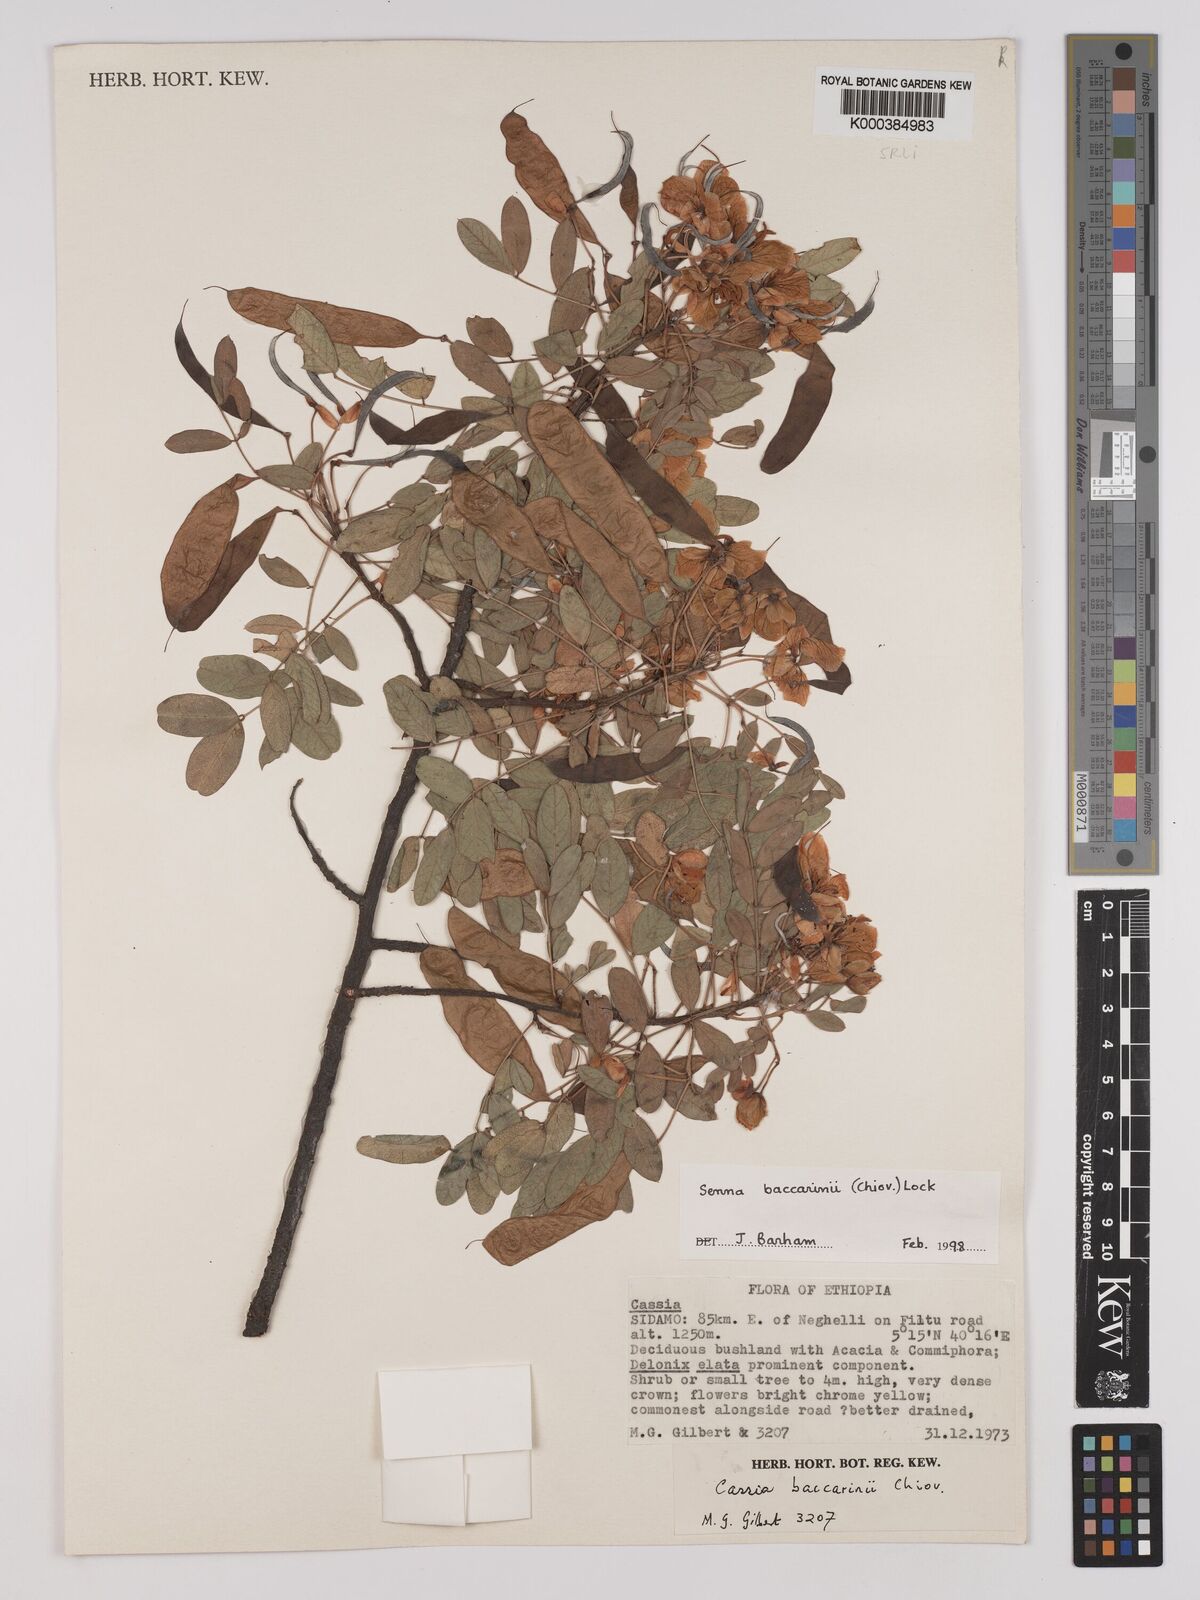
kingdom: Plantae
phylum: Tracheophyta
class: Magnoliopsida
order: Fabales
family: Fabaceae
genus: Senna
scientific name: Senna baccarinii
